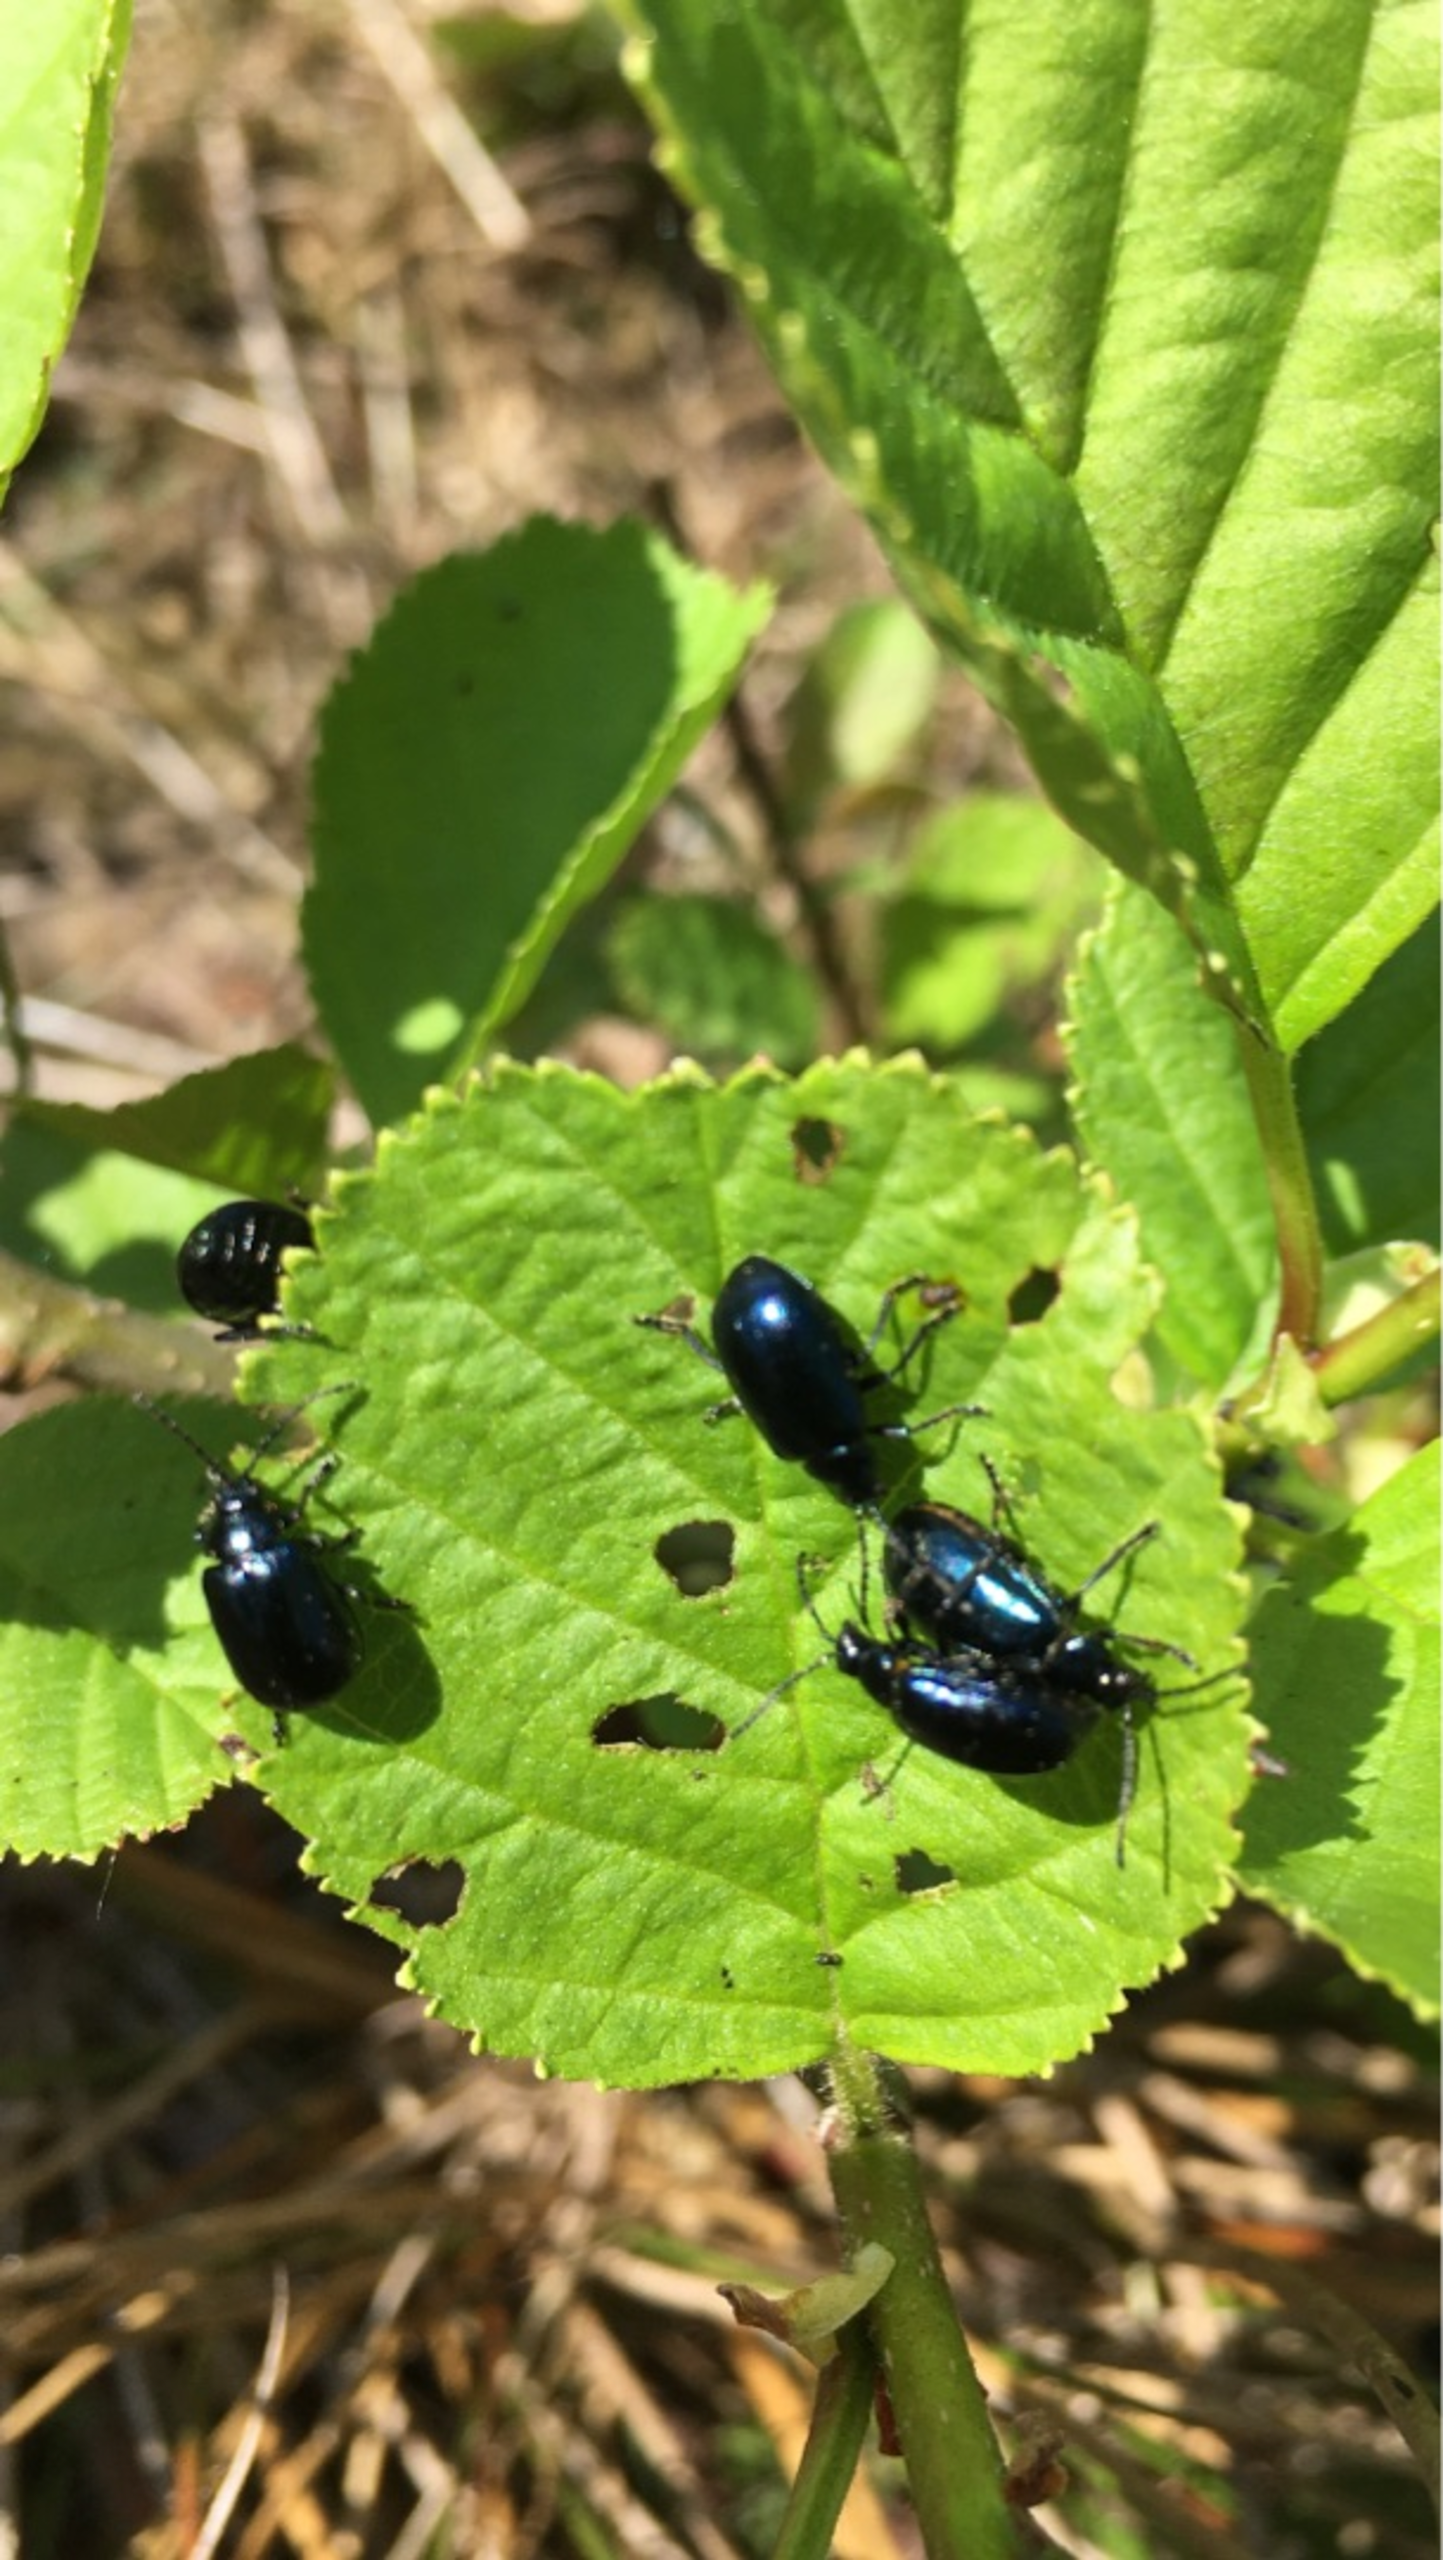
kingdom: Animalia
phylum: Arthropoda
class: Insecta
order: Coleoptera
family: Chrysomelidae
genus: Agelastica
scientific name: Agelastica alni
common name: Ellebladbille
